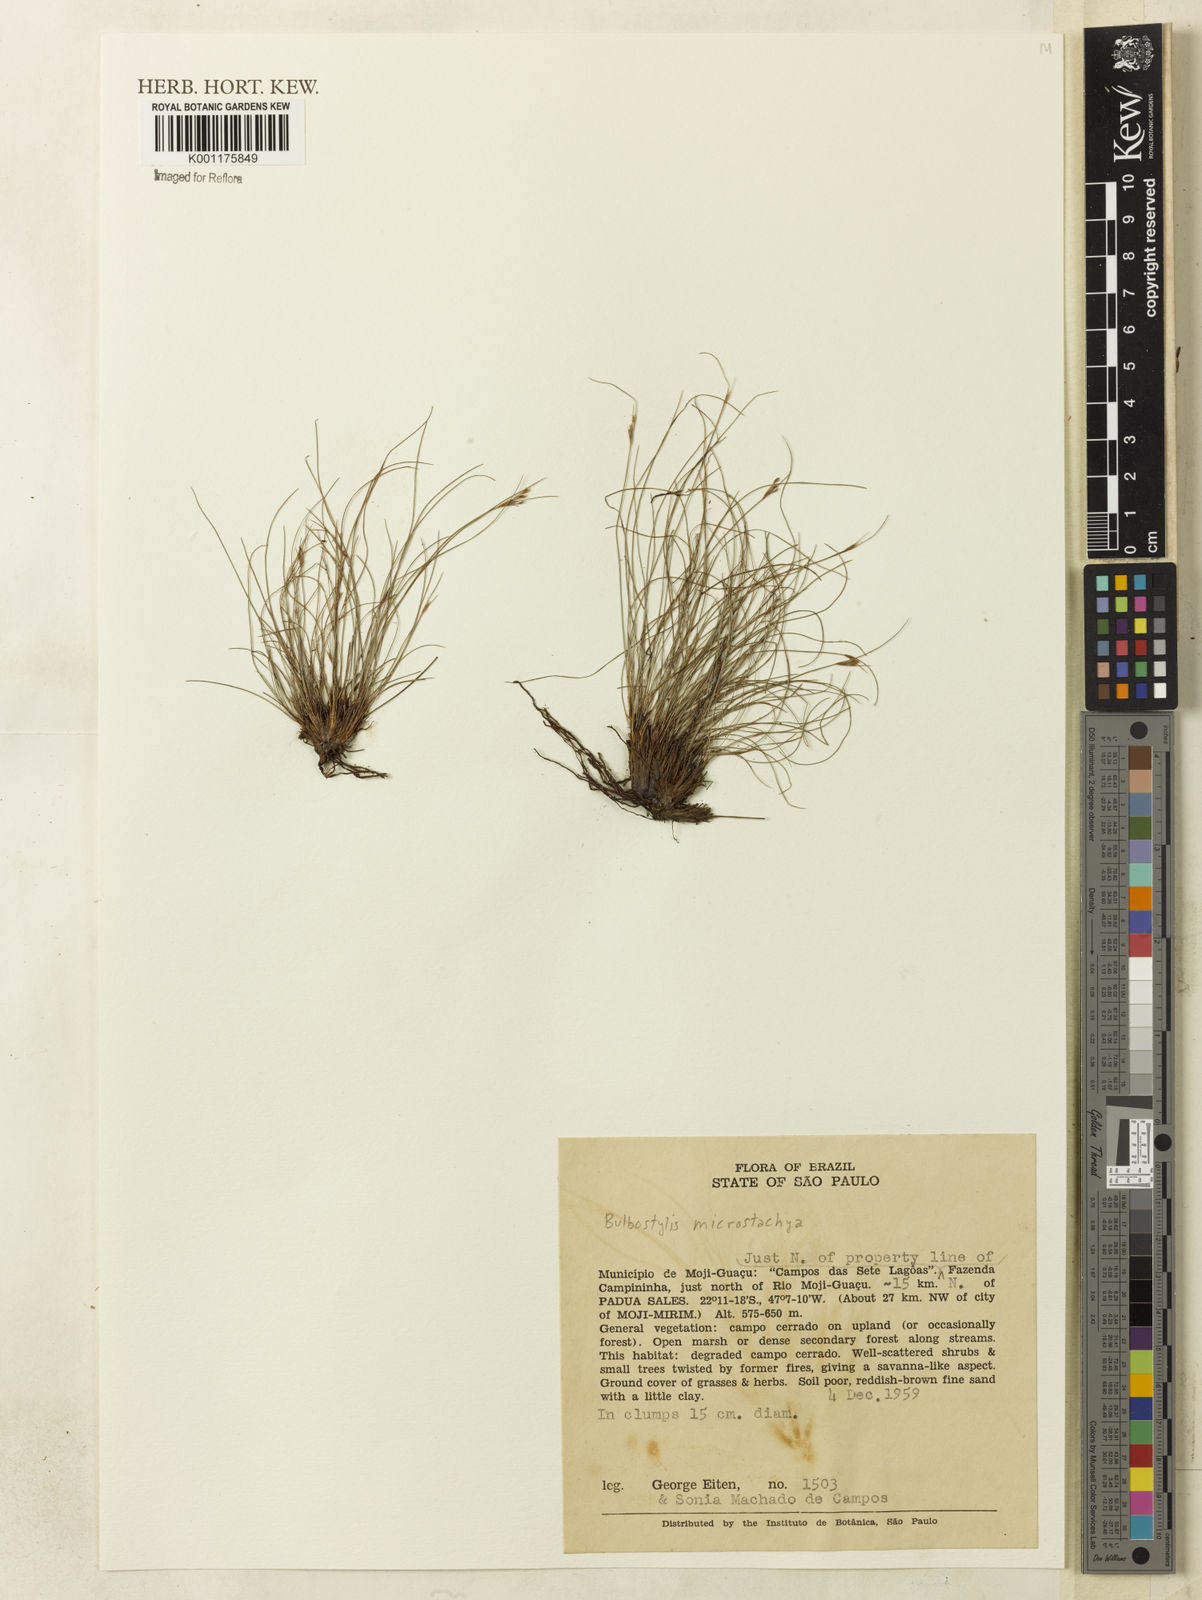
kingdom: Plantae
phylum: Tracheophyta
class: Magnoliopsida
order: Asterales
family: Asteraceae
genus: Bulbostylis
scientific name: Bulbostylis
